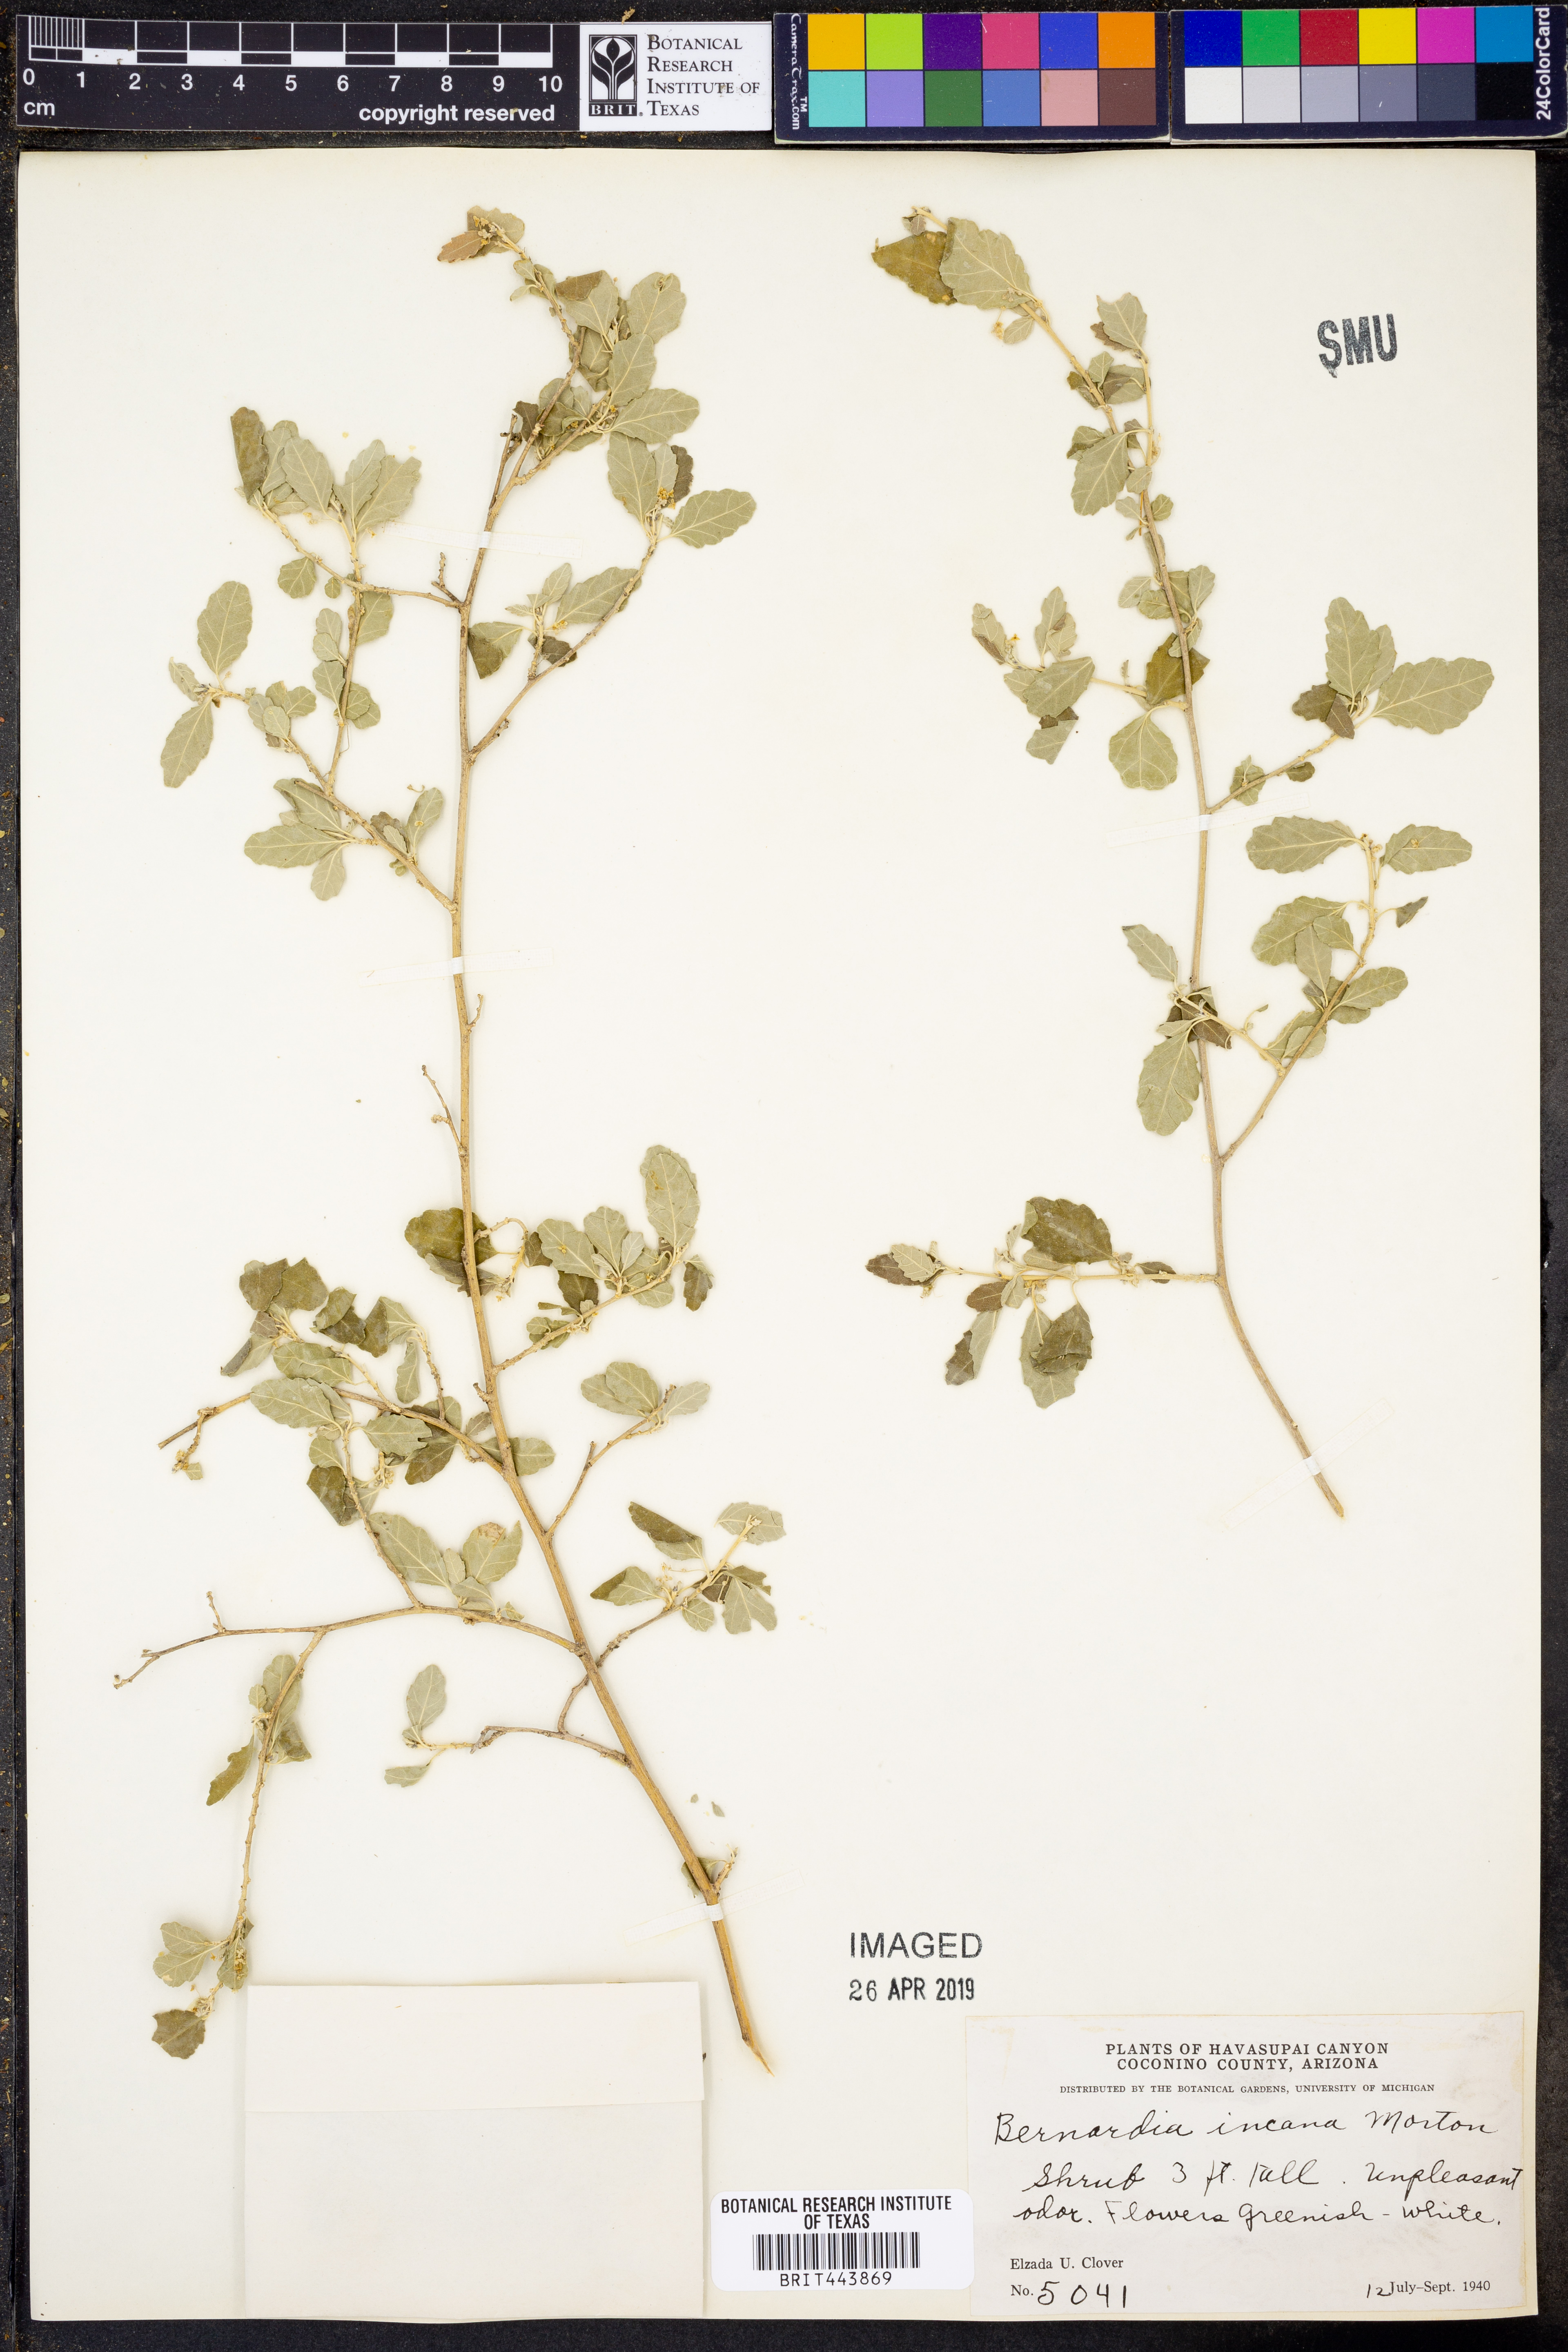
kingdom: Plantae
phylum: Tracheophyta
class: Magnoliopsida
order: Malpighiales
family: Euphorbiaceae
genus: Bernardia
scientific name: Bernardia incana
